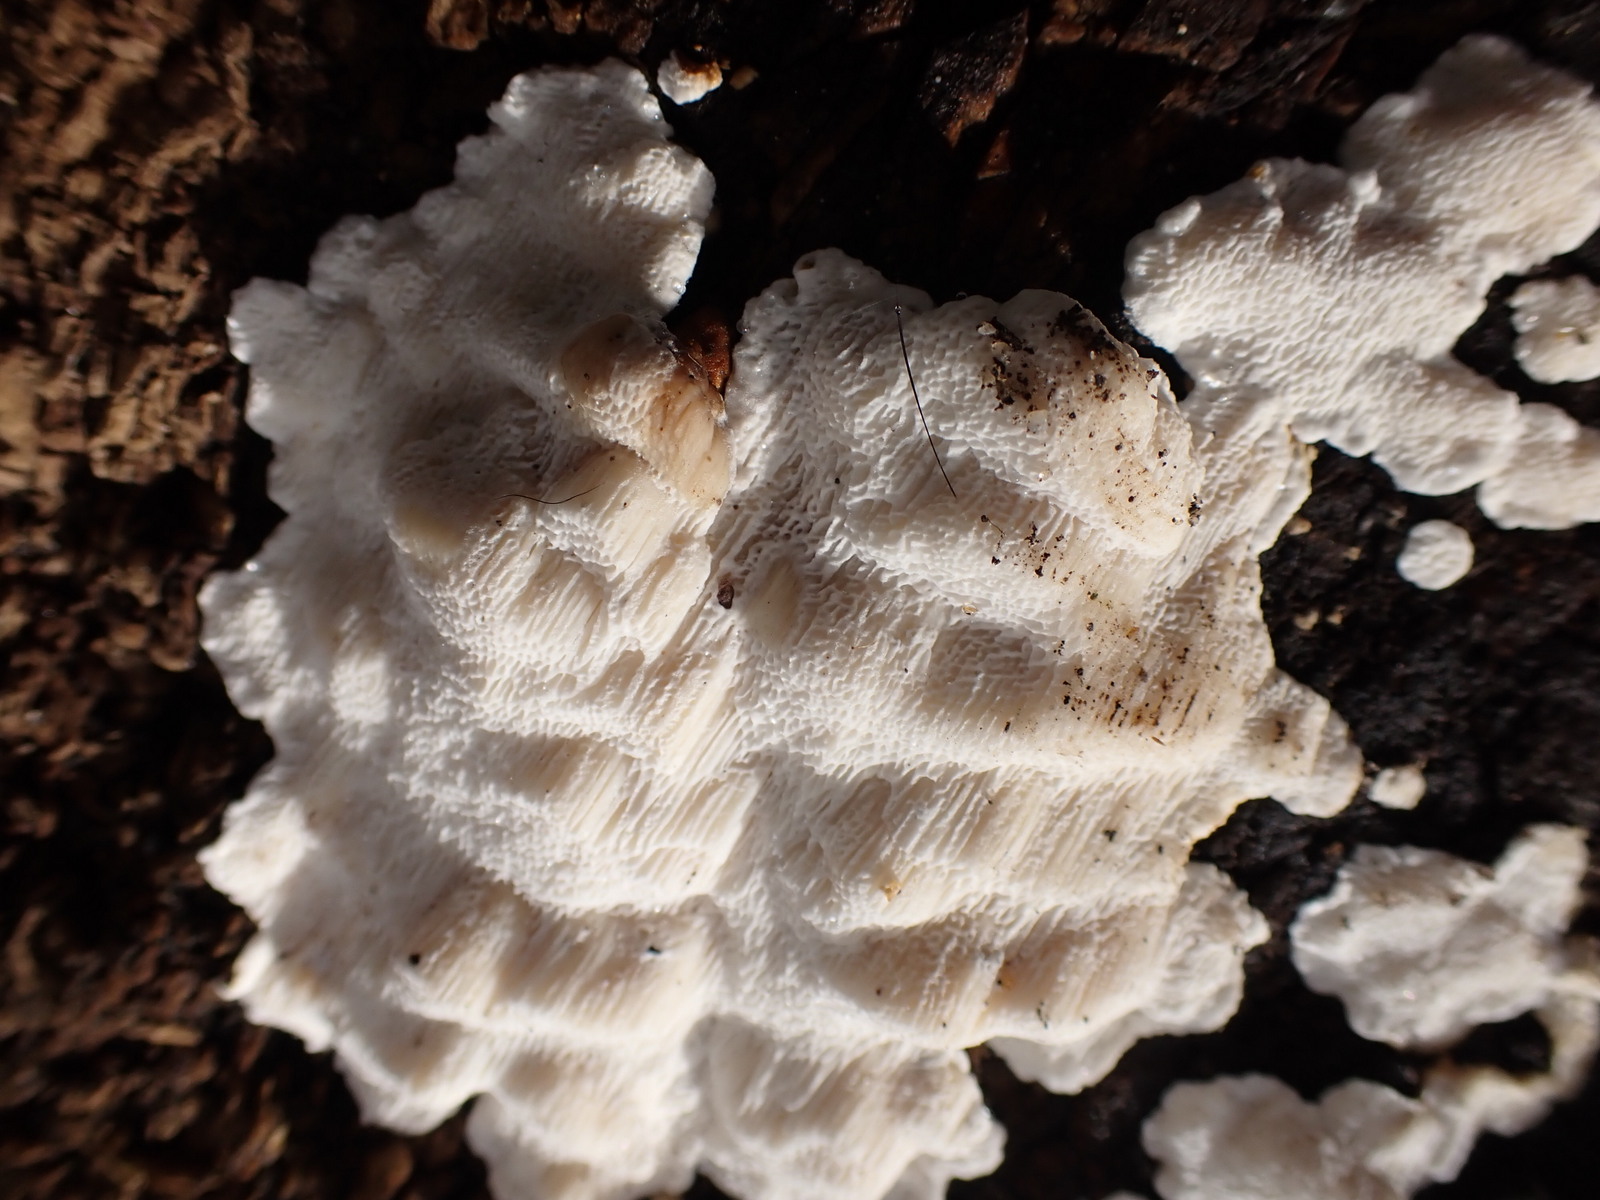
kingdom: Fungi
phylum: Basidiomycota
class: Agaricomycetes
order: Polyporales
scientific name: Polyporales
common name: poresvampordenen
